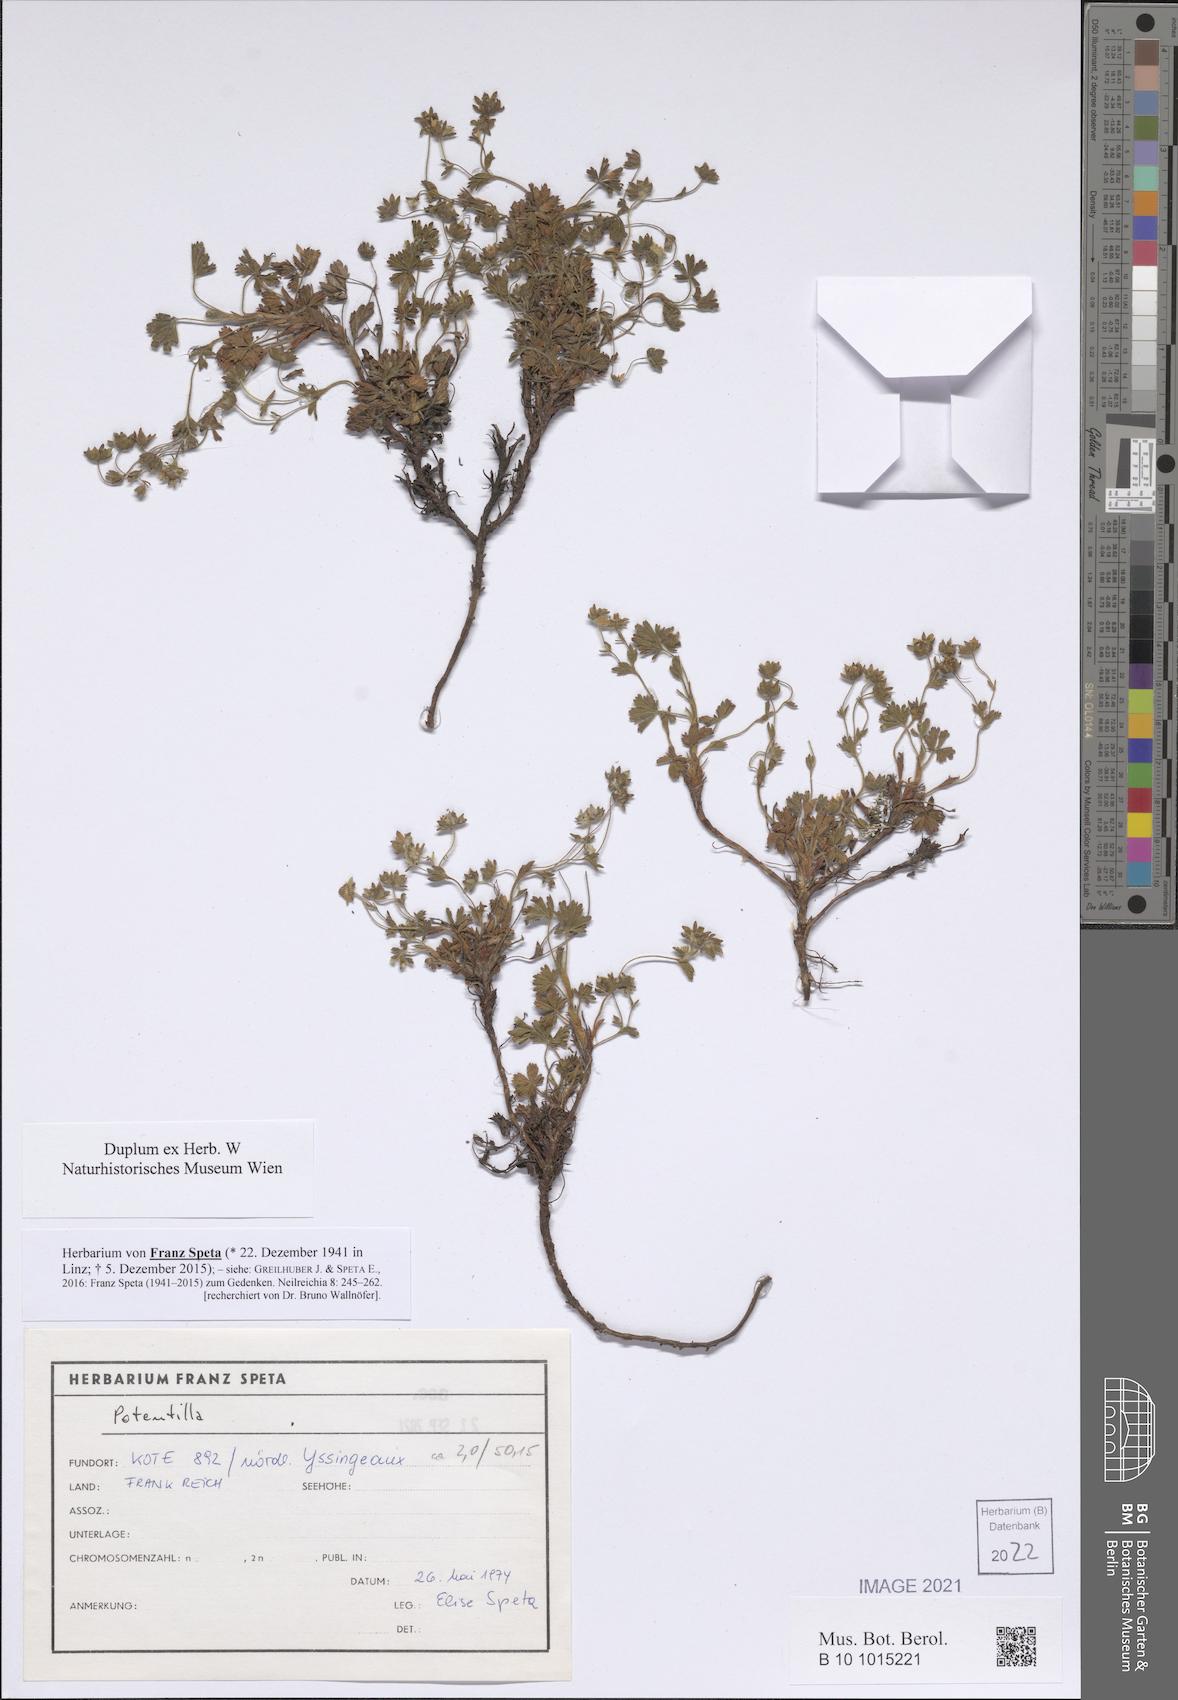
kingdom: Plantae
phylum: Tracheophyta
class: Magnoliopsida
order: Rosales
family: Rosaceae
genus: Potentilla
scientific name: Potentilla
